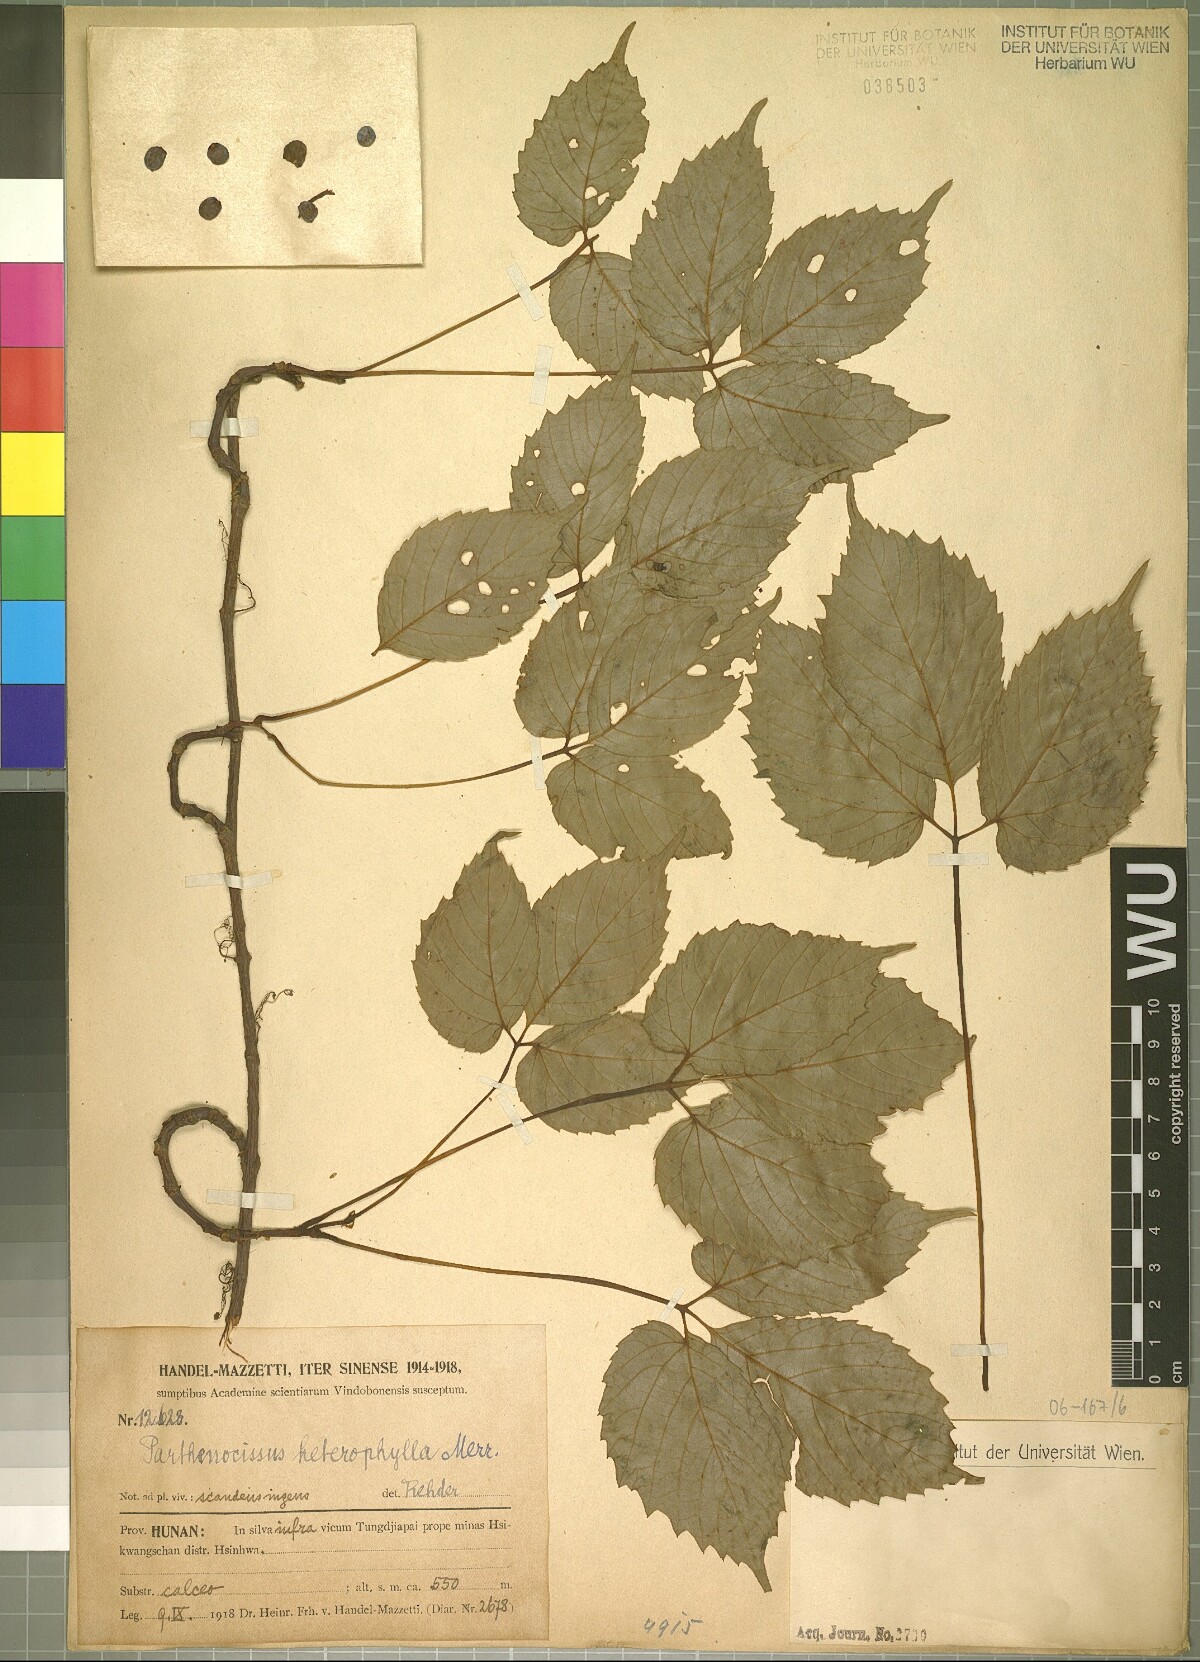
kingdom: Plantae
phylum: Tracheophyta
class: Magnoliopsida
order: Vitales
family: Vitaceae
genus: Parthenocissus
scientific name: Parthenocissus semicordata
